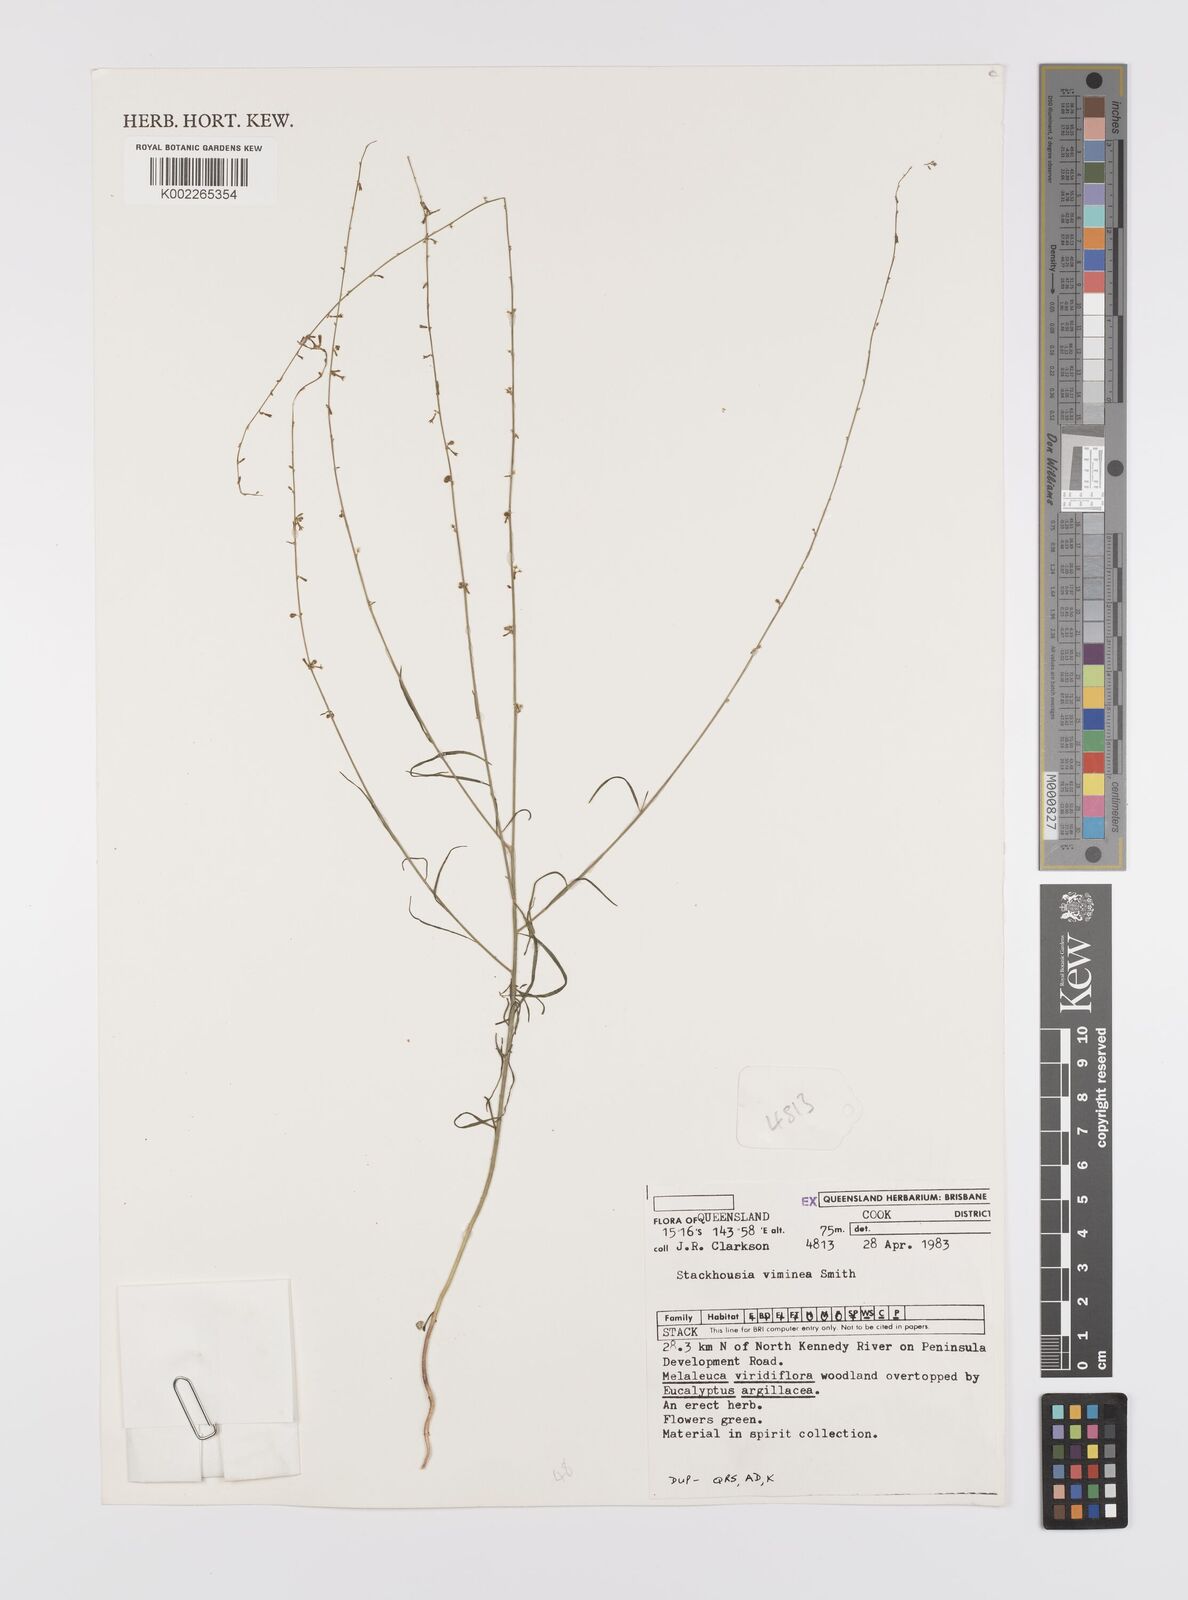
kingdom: Plantae
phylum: Tracheophyta
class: Magnoliopsida
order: Celastrales
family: Celastraceae
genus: Stackhousia
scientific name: Stackhousia muricata
